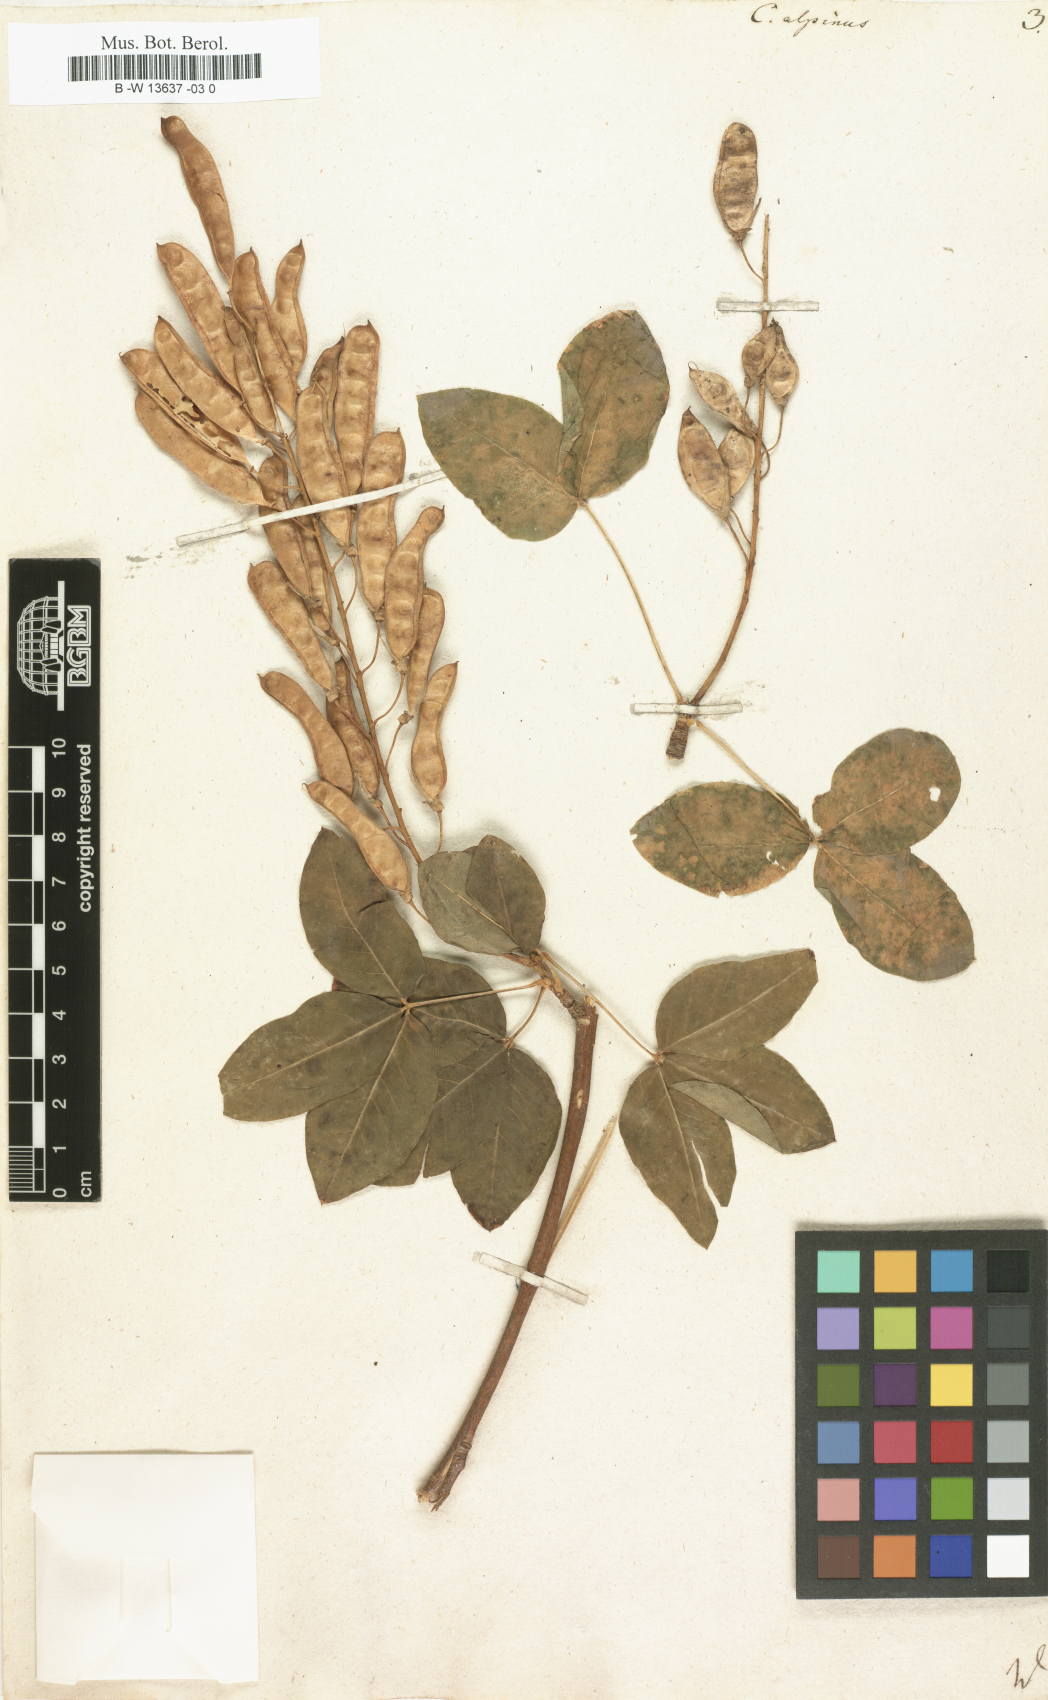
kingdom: Plantae
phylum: Tracheophyta
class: Magnoliopsida
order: Fabales
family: Fabaceae
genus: Laburnum
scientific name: Laburnum alpinum
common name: Scottish laburnum
